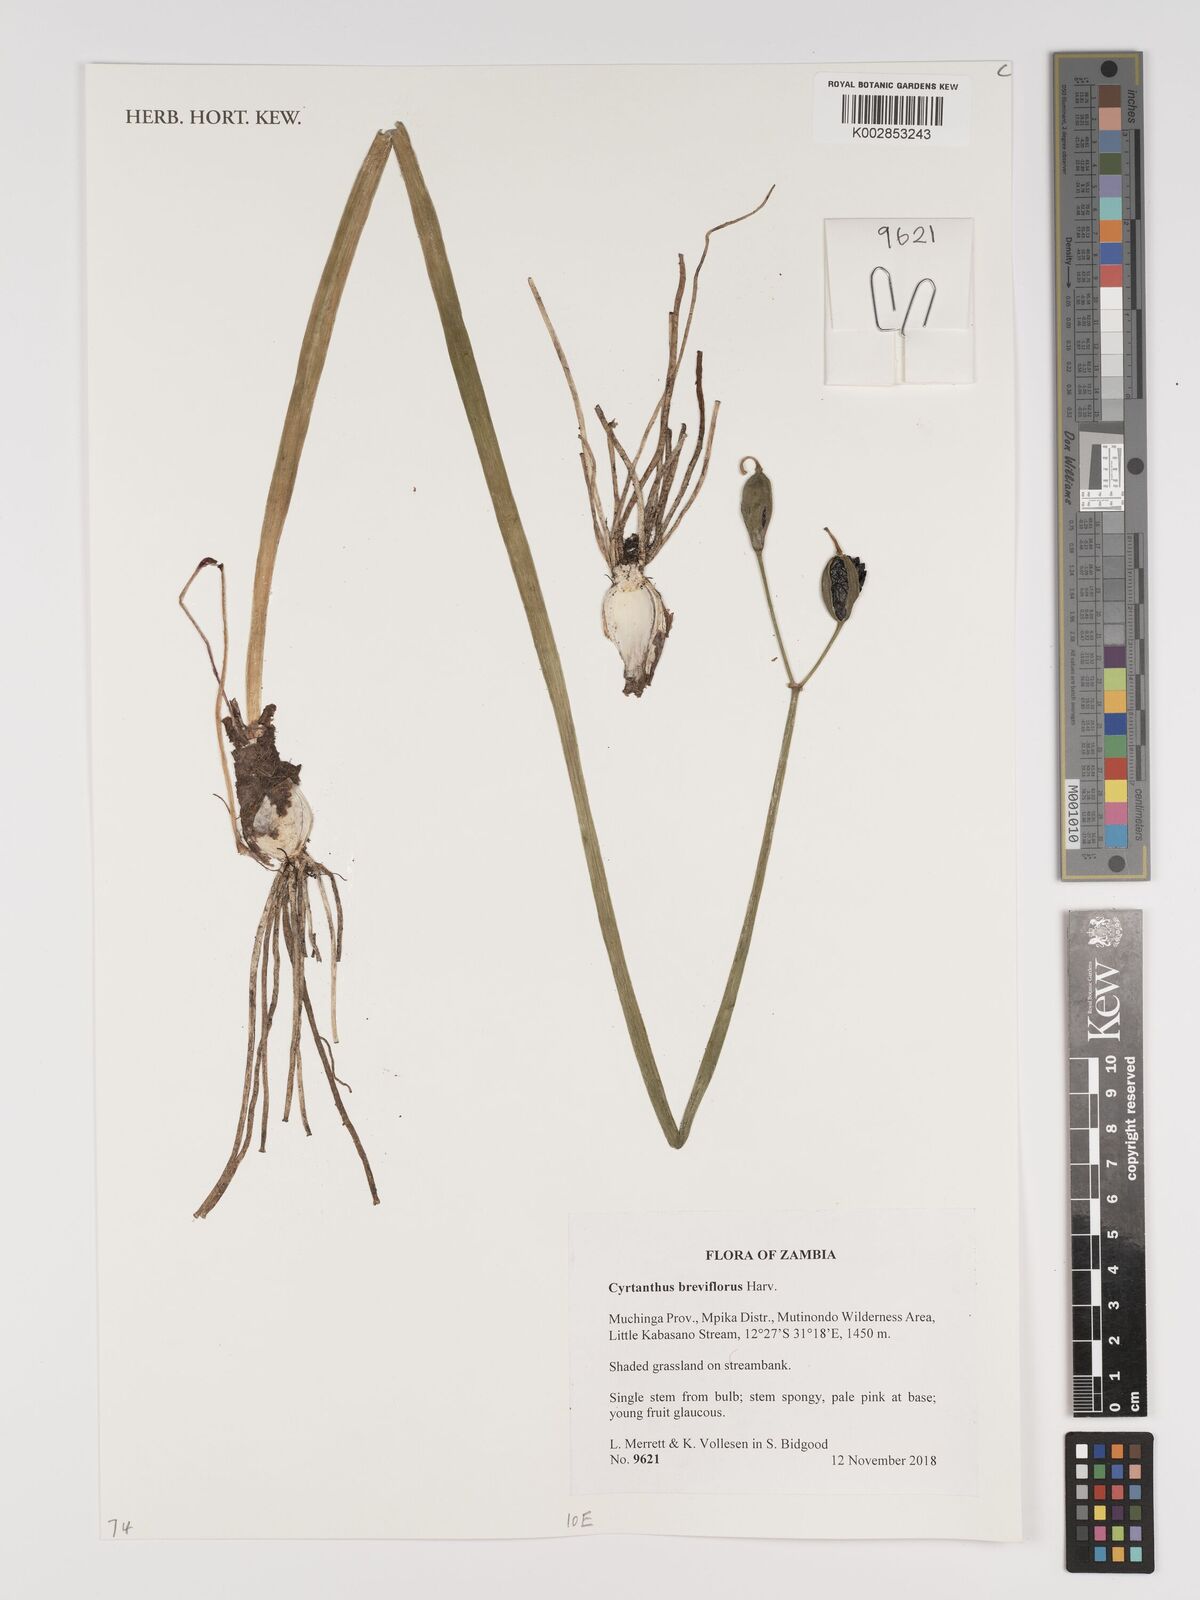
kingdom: Plantae
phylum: Tracheophyta
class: Liliopsida
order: Asparagales
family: Amaryllidaceae
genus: Cyrtanthus
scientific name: Cyrtanthus breviflorus
